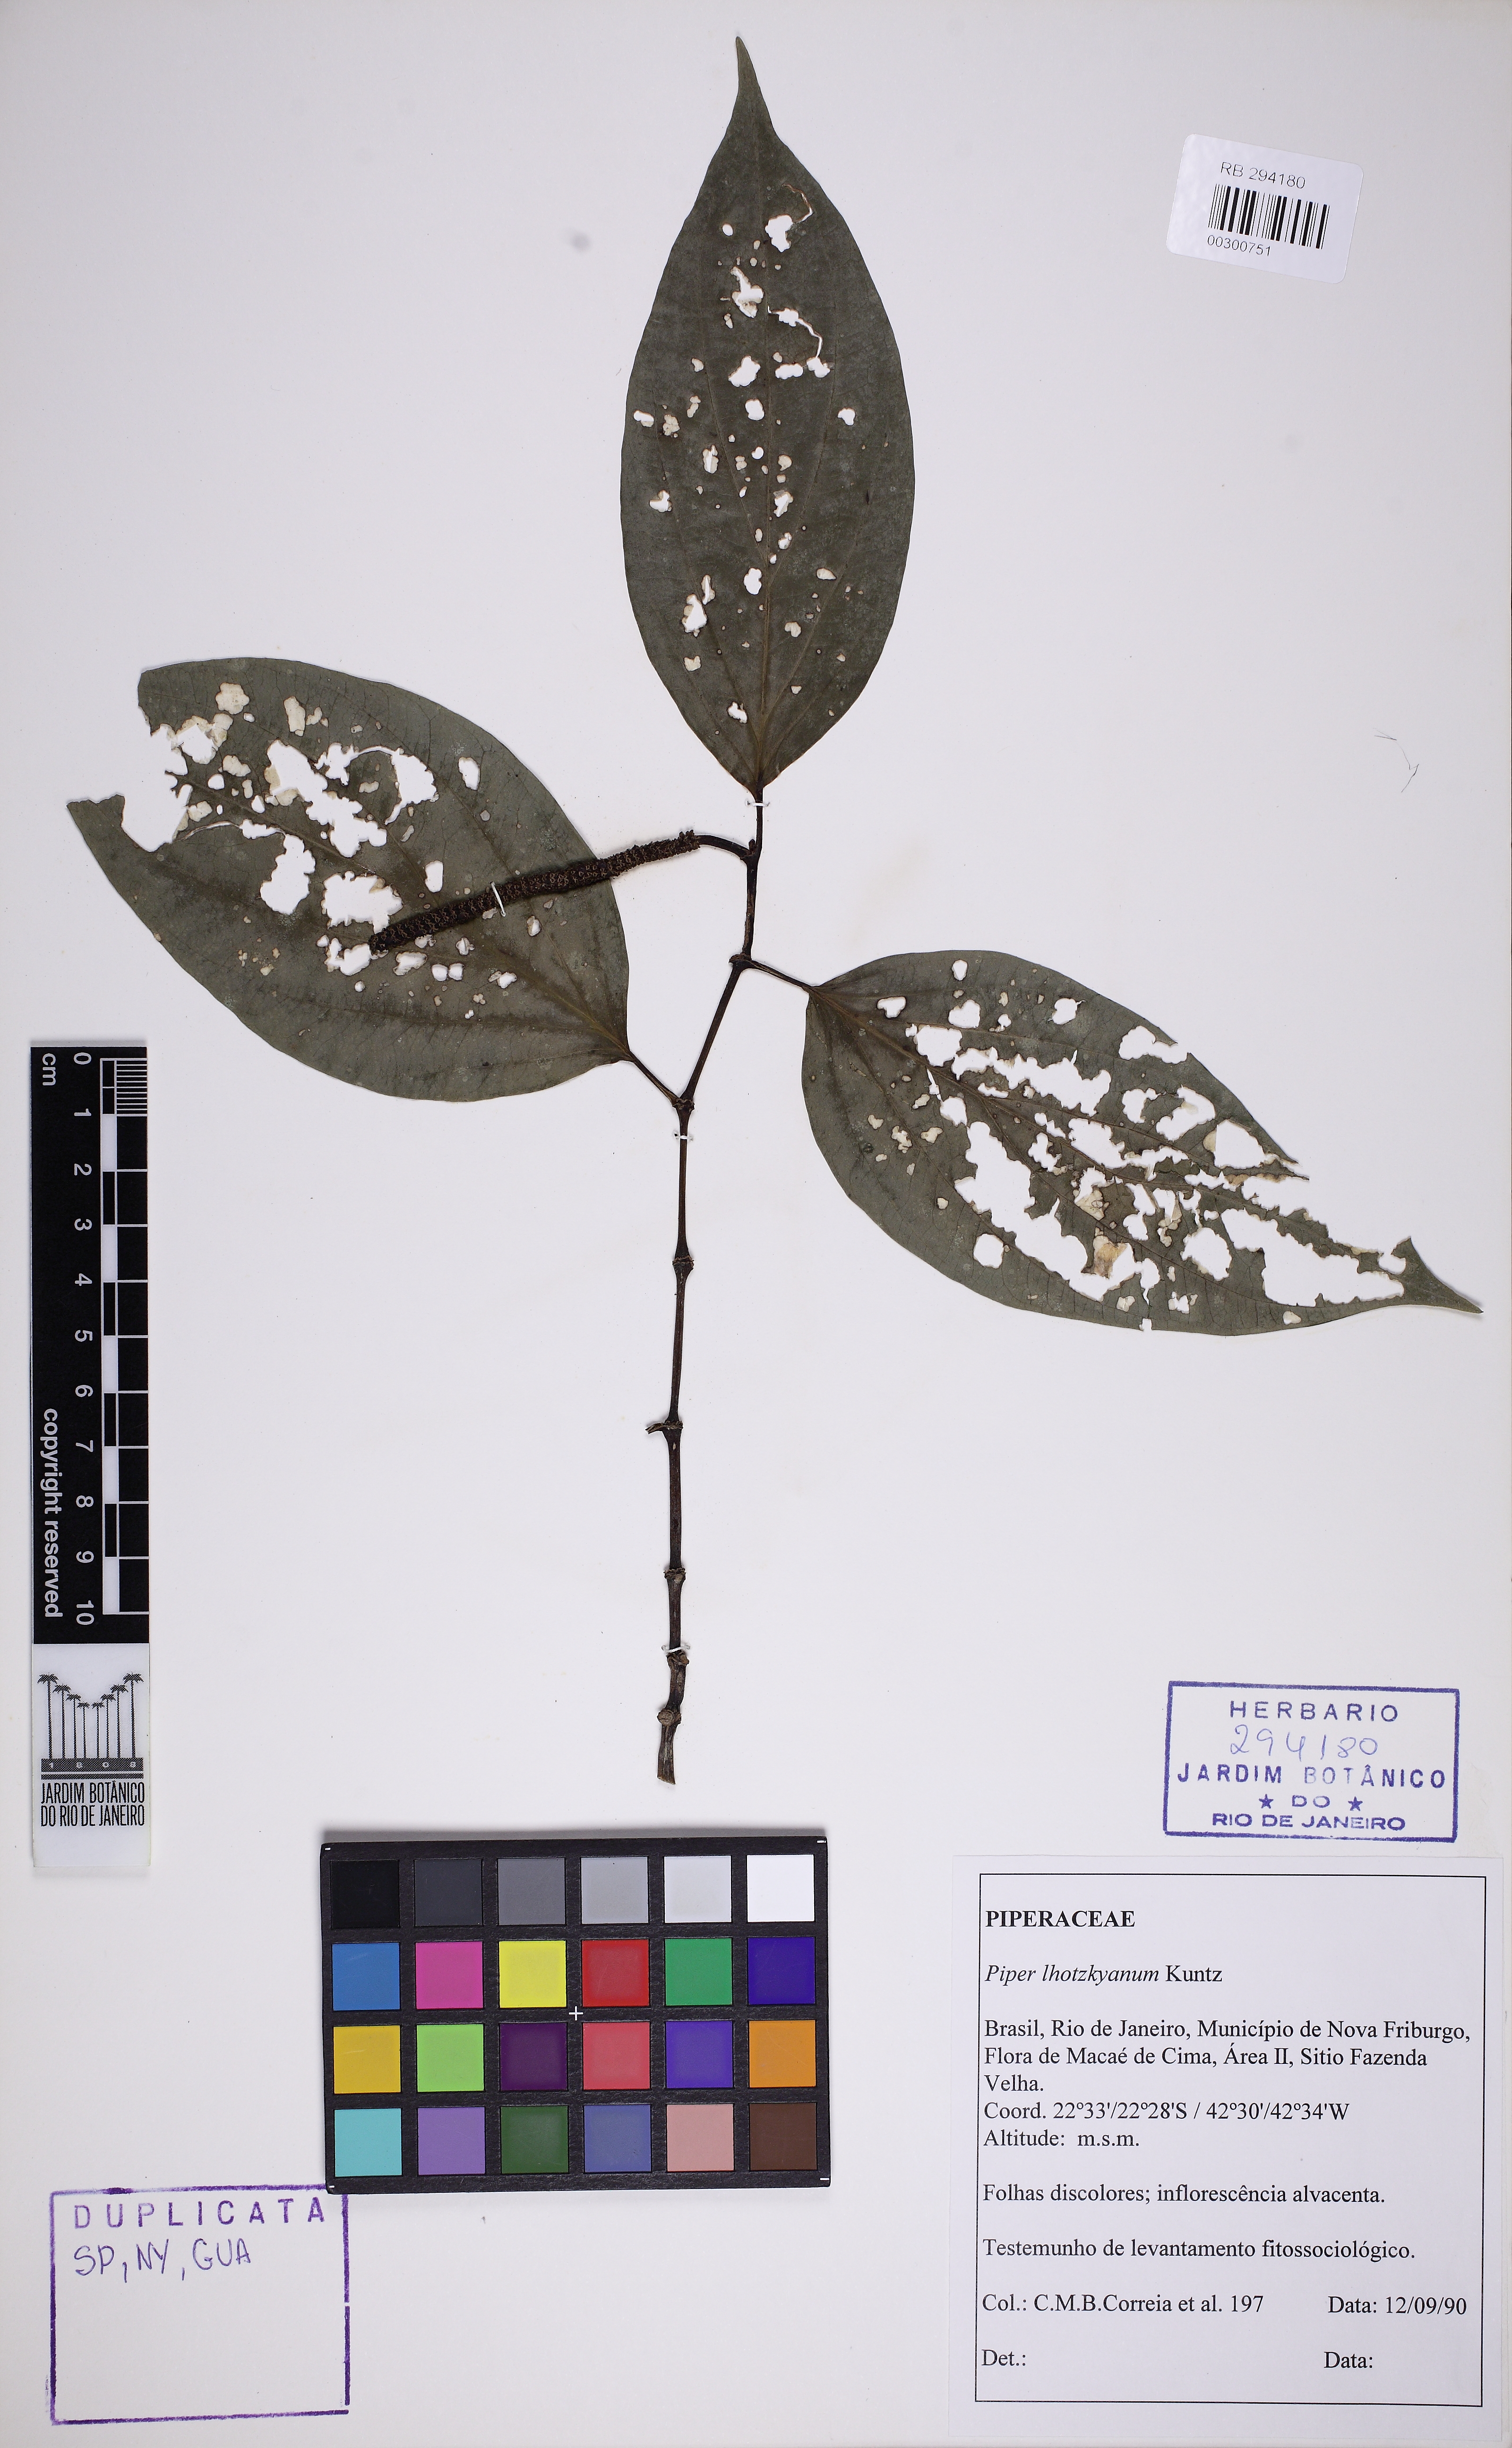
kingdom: Plantae
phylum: Tracheophyta
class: Magnoliopsida
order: Piperales
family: Piperaceae
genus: Piper
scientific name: Piper lhotzkyanum
